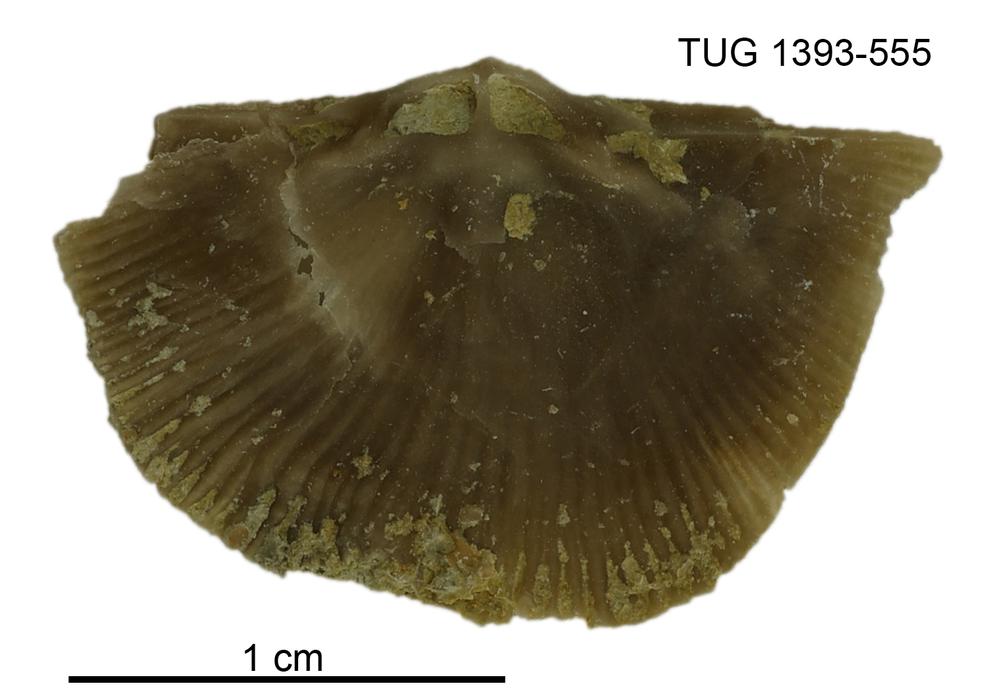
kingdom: Animalia
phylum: Brachiopoda
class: Rhynchonellata
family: Clitambonitidae
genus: Vellamo
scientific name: Vellamo
